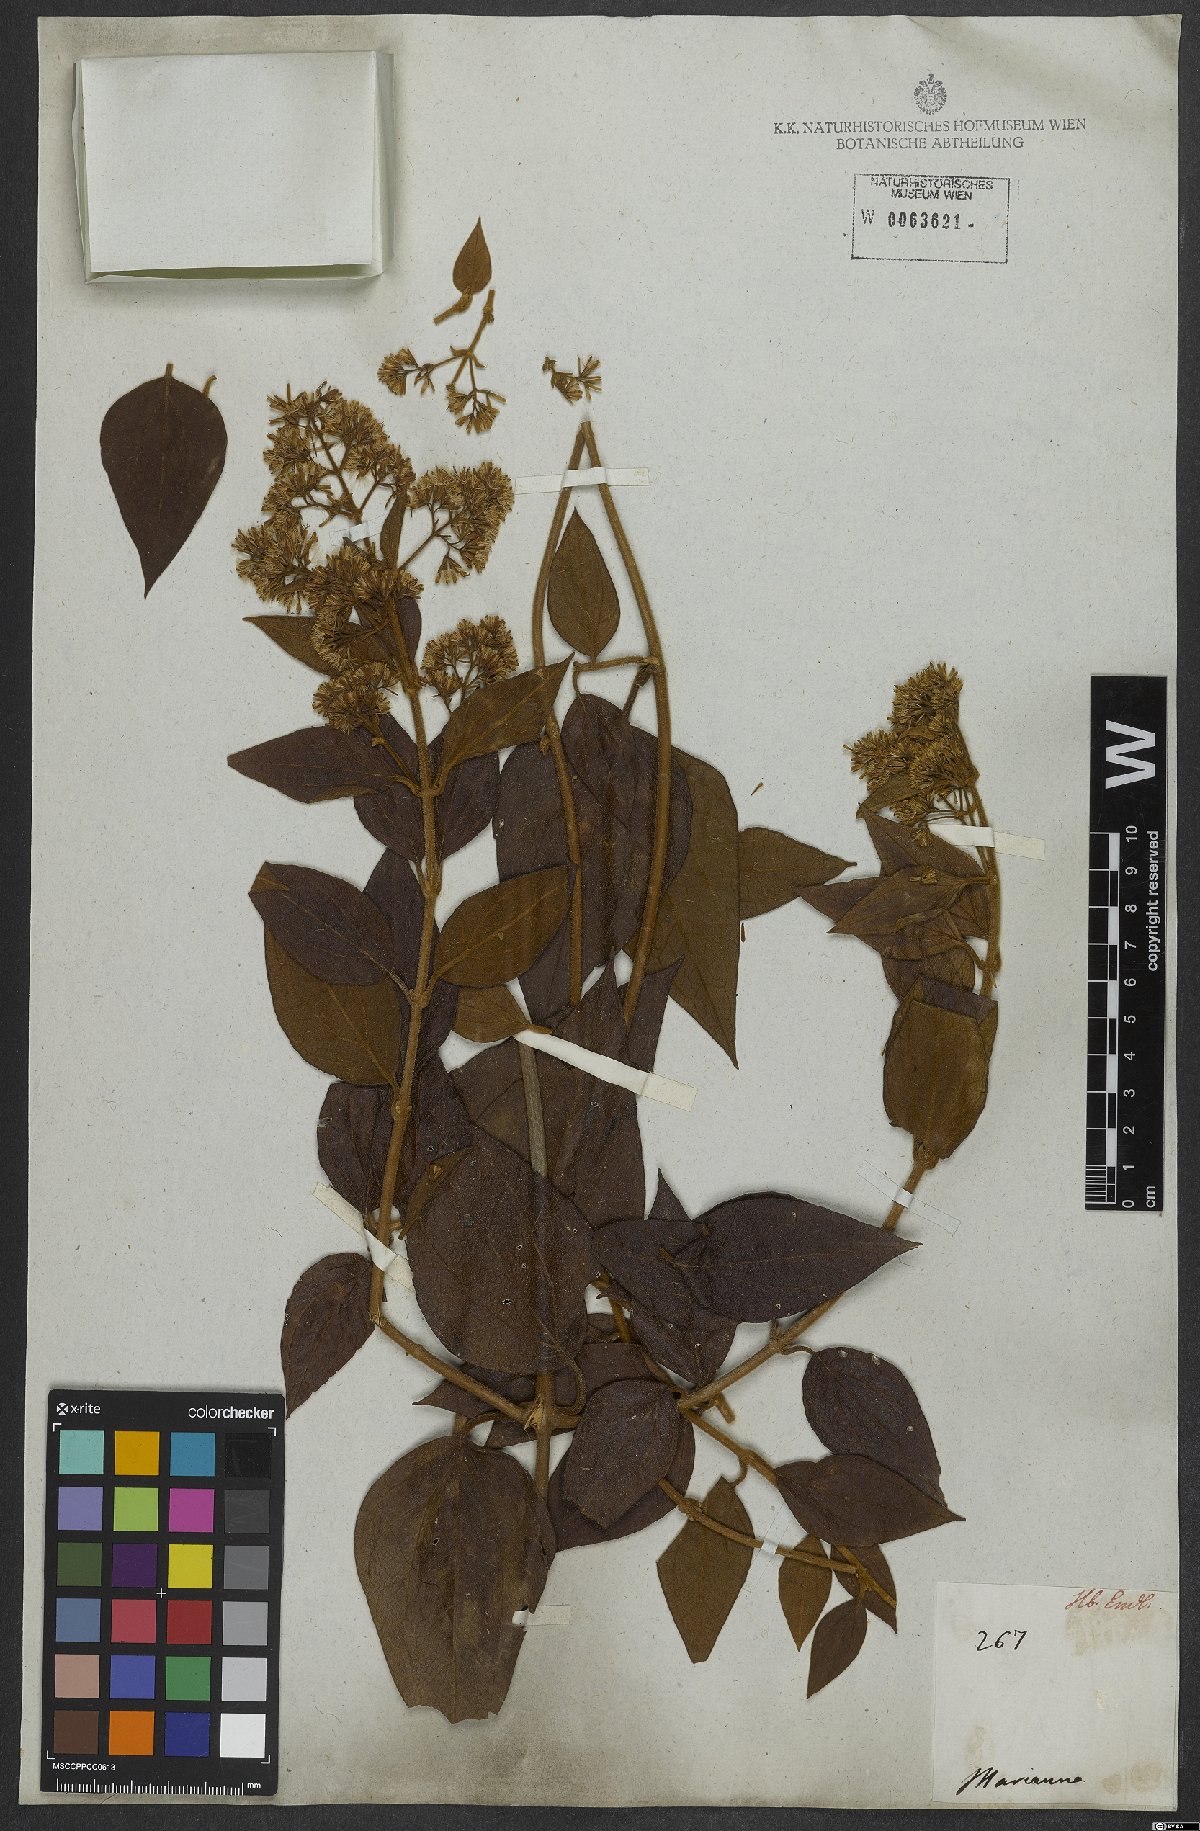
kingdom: Plantae
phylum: Tracheophyta
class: Magnoliopsida
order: Asterales
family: Asteraceae
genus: Mikania
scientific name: Mikania lasiandrae
